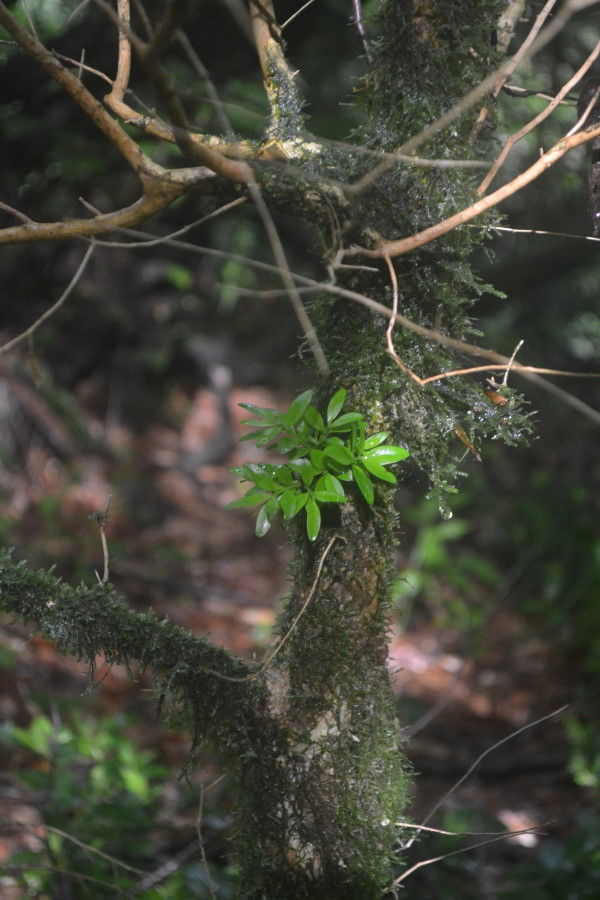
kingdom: Plantae
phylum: Tracheophyta
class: Magnoliopsida
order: Buxales
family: Buxaceae
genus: Buxus
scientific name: Buxus
